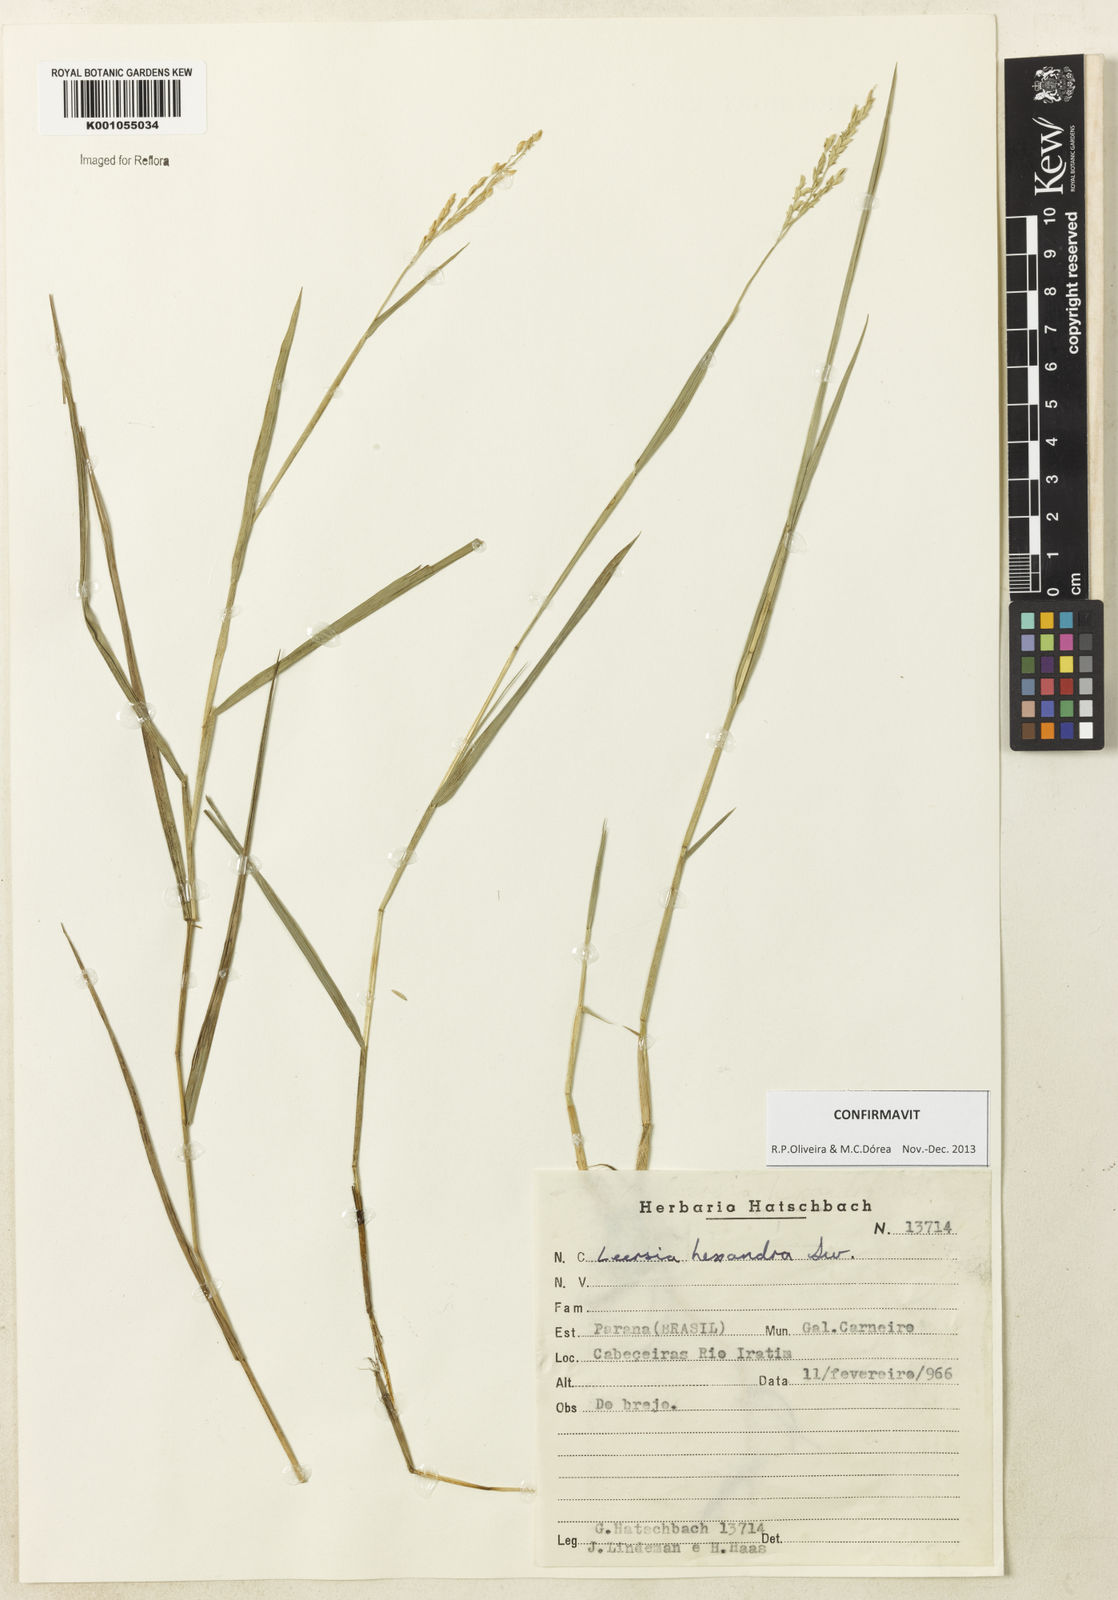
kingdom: Plantae
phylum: Tracheophyta
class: Liliopsida
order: Poales
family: Poaceae
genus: Leersia
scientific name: Leersia hexandra
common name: Southern cut grass
